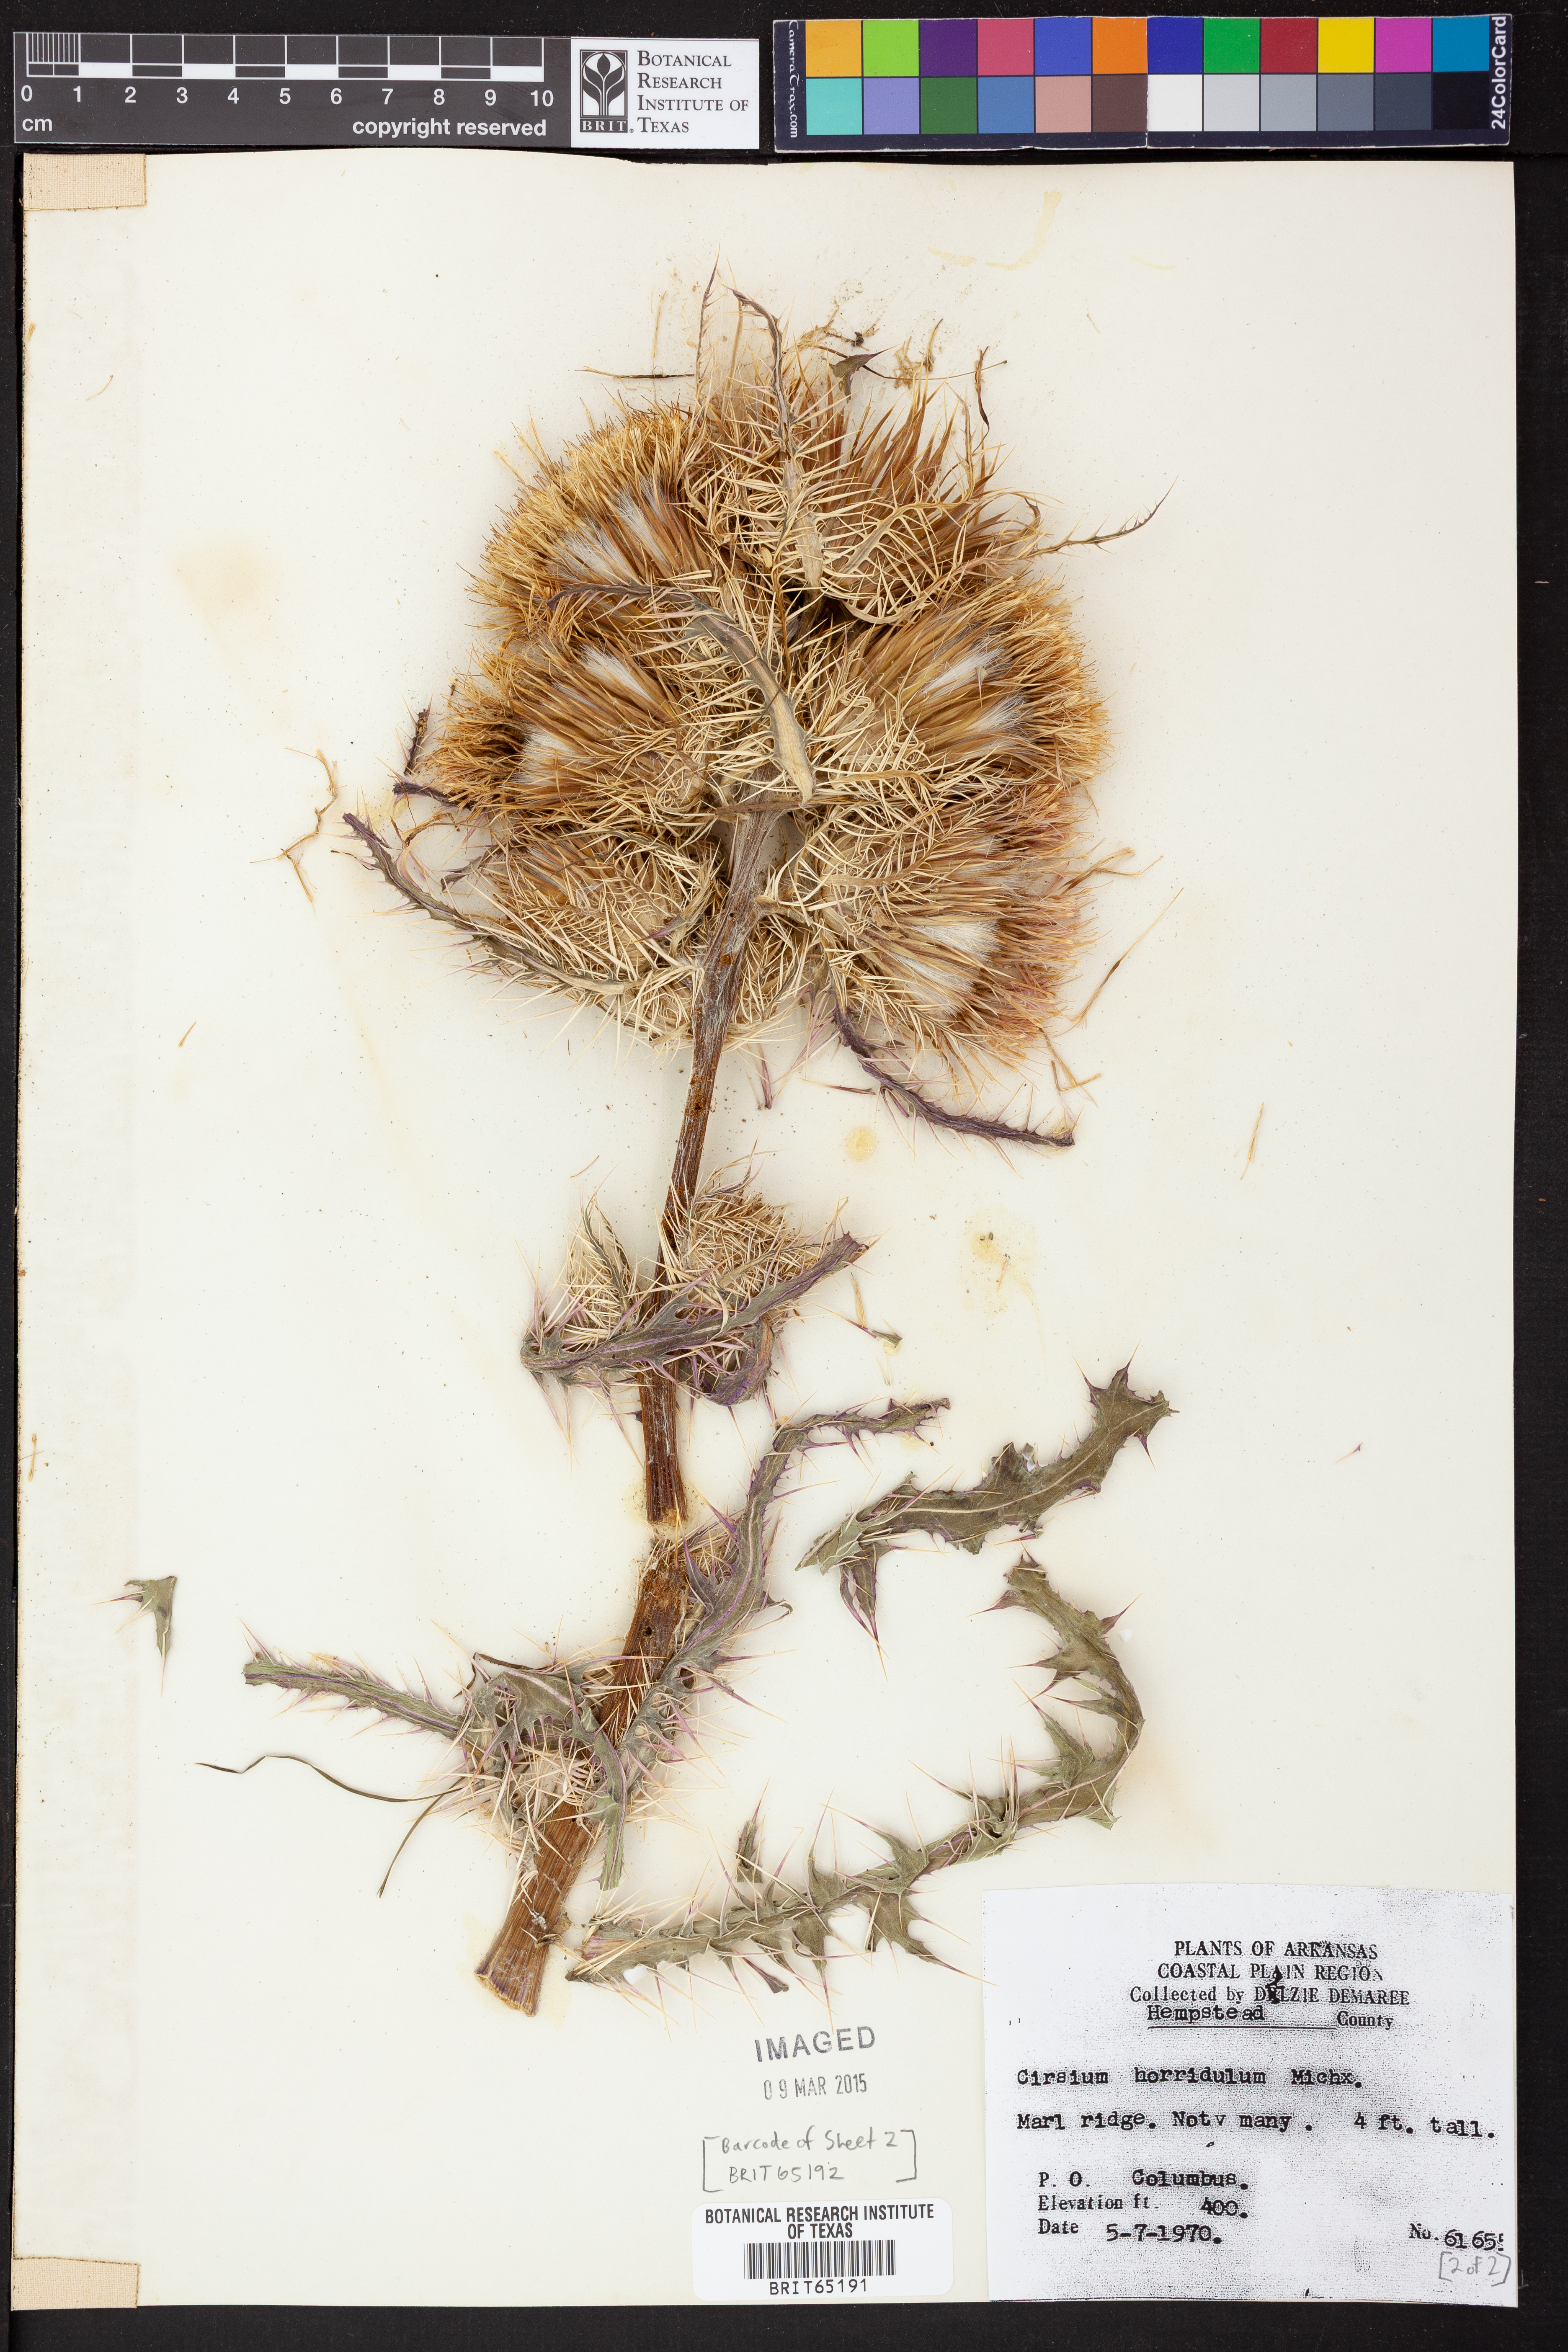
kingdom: Plantae
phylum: Tracheophyta
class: Magnoliopsida
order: Asterales
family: Asteraceae
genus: Cirsium
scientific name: Cirsium horridulum
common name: Bristly thistle
